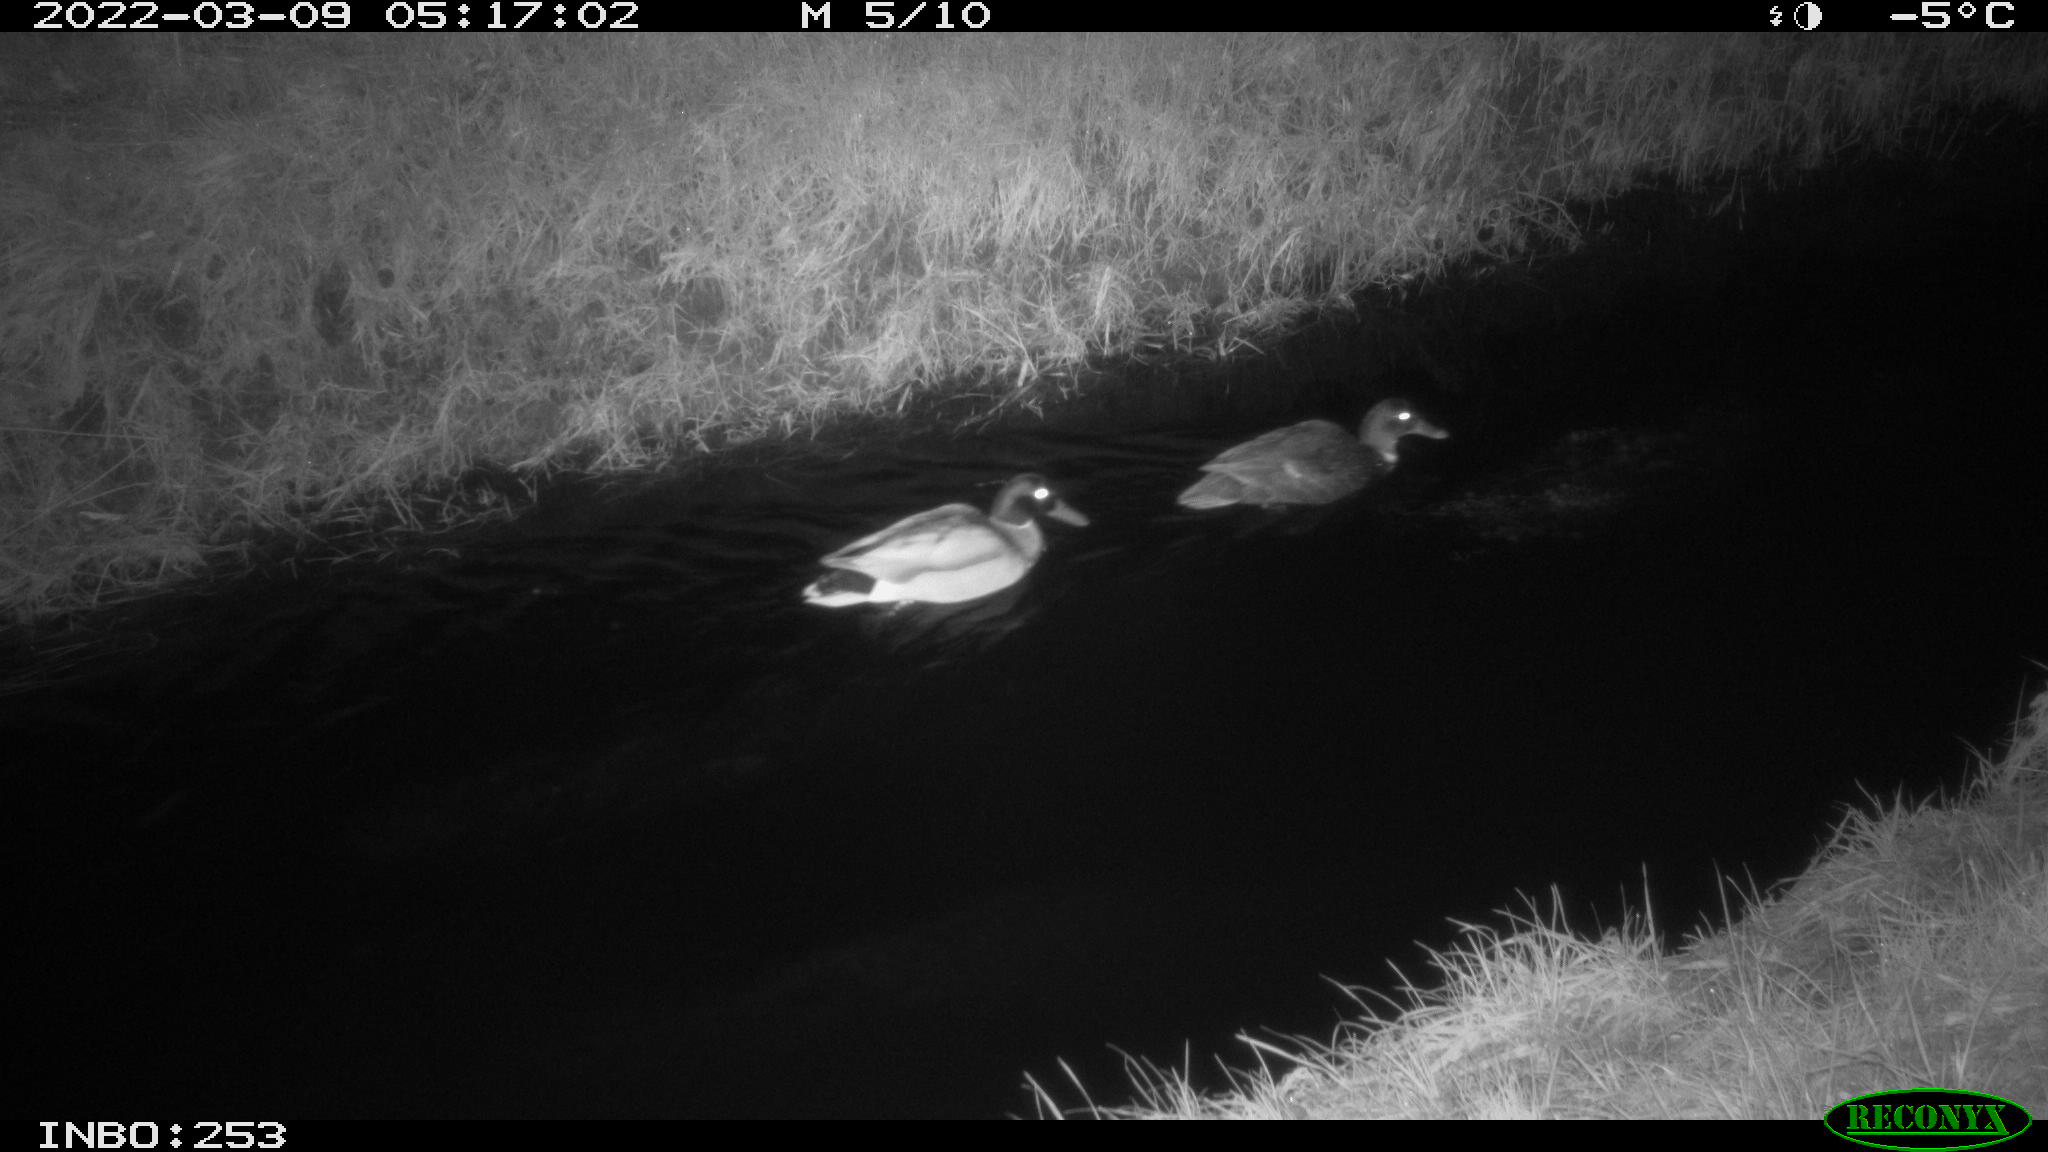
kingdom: Animalia
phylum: Chordata
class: Aves
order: Anseriformes
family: Anatidae
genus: Anas
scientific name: Anas platyrhynchos
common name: Mallard
